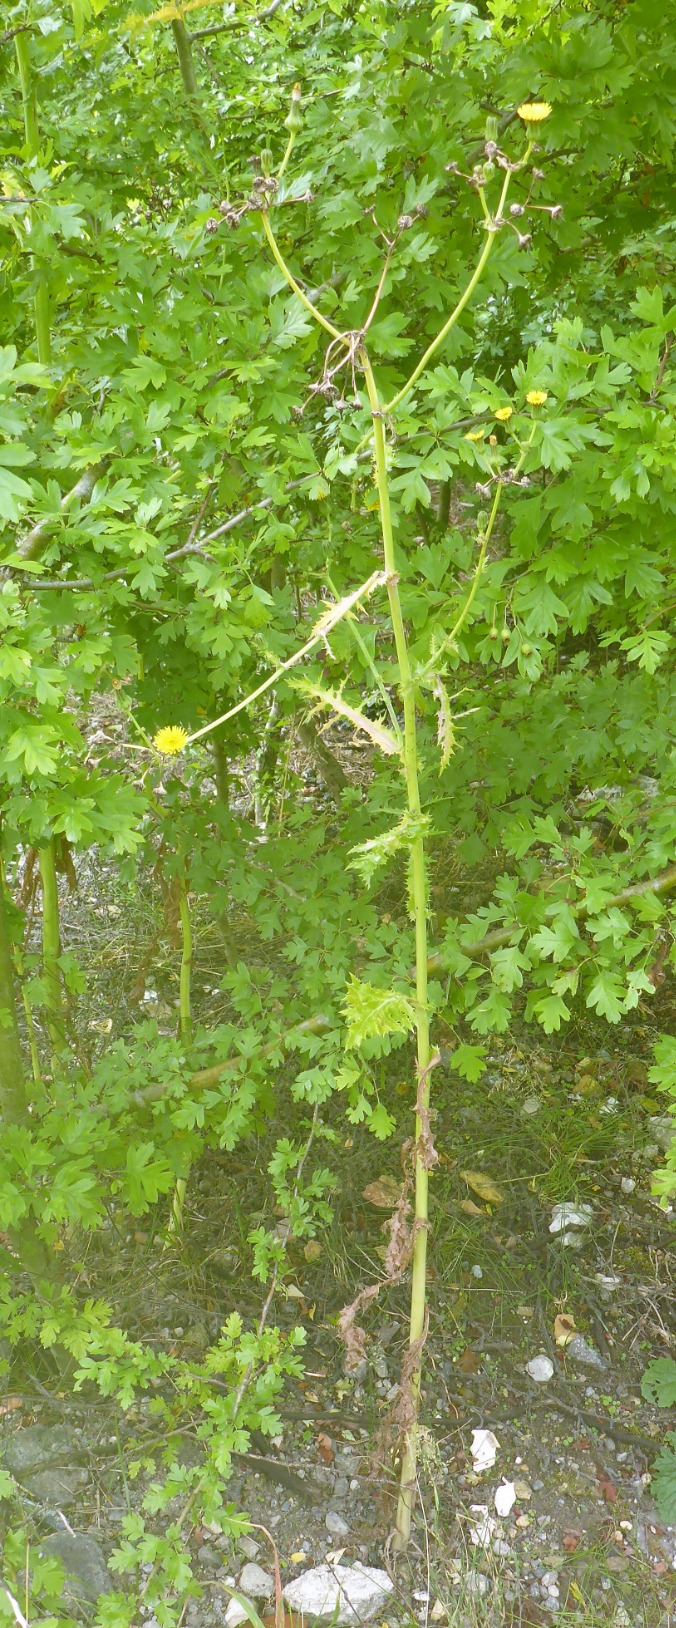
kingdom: Plantae
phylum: Tracheophyta
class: Magnoliopsida
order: Asterales
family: Asteraceae
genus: Sonchus
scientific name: Sonchus asper
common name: Ru svinemælk
